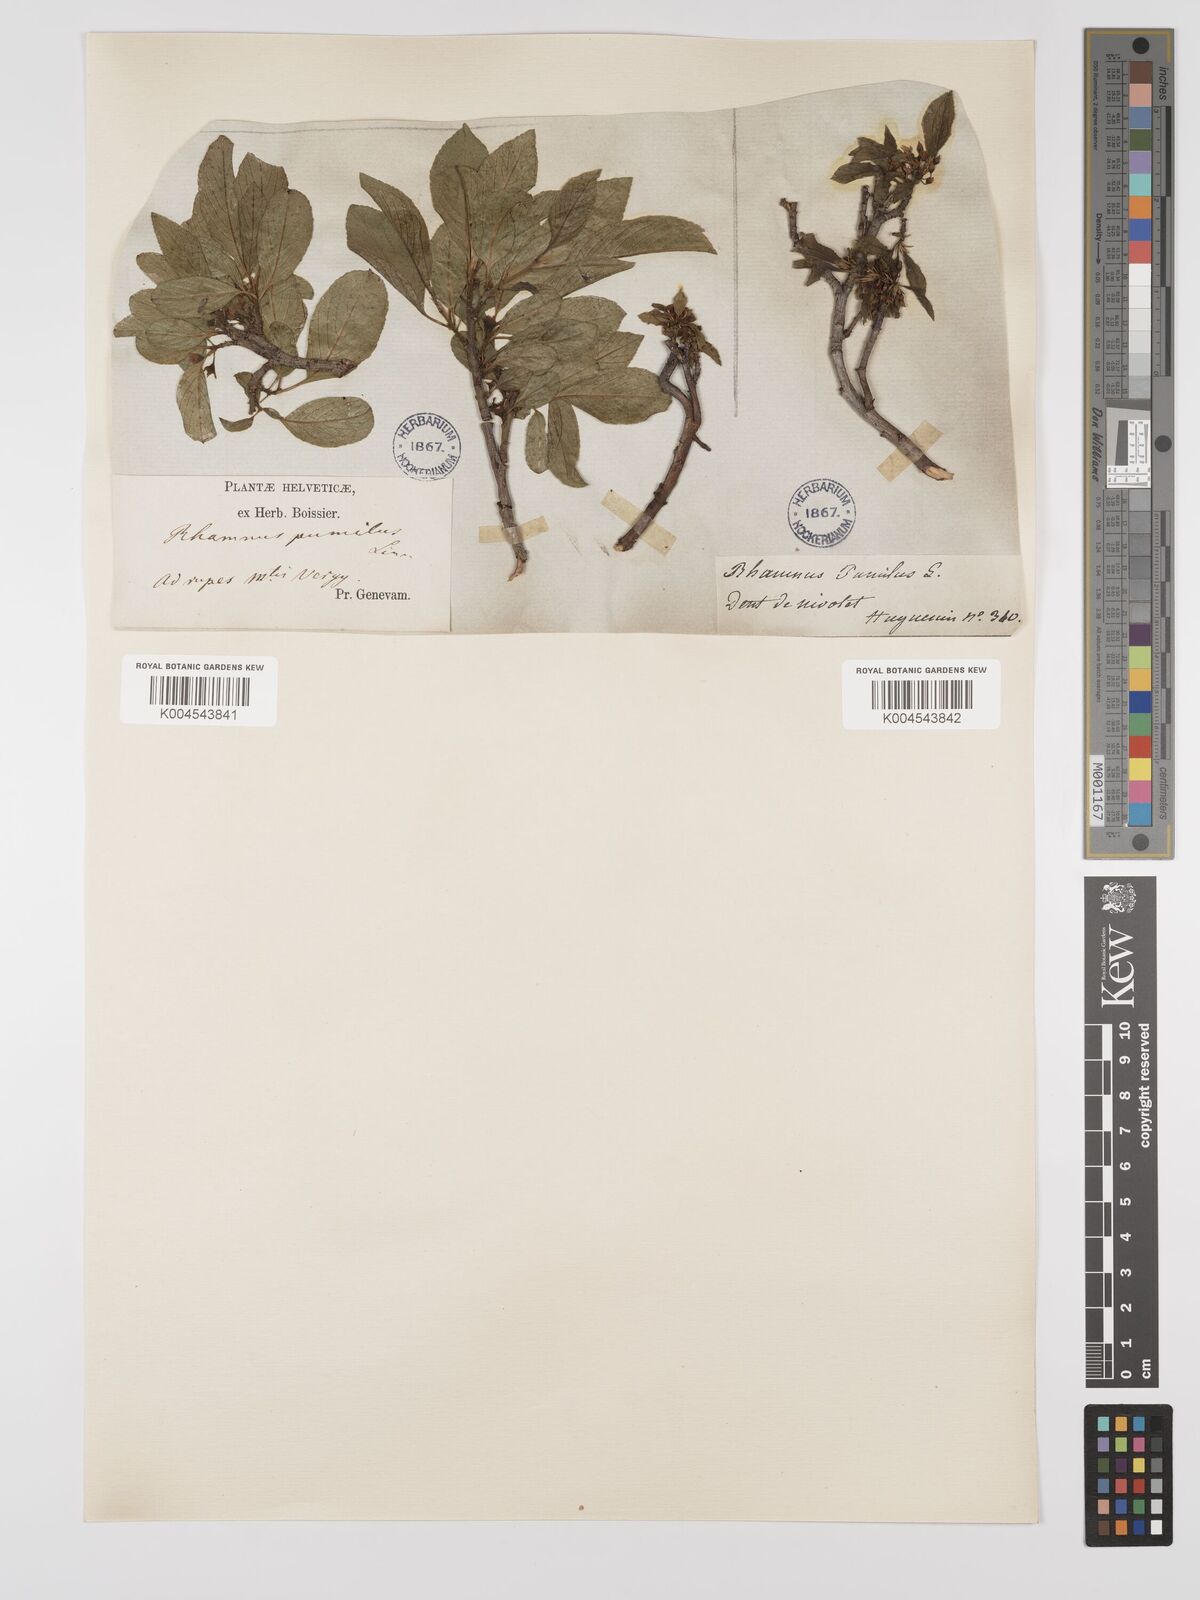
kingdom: Plantae
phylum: Tracheophyta
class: Magnoliopsida
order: Rosales
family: Rhamnaceae
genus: Rhamnus
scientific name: Rhamnus
